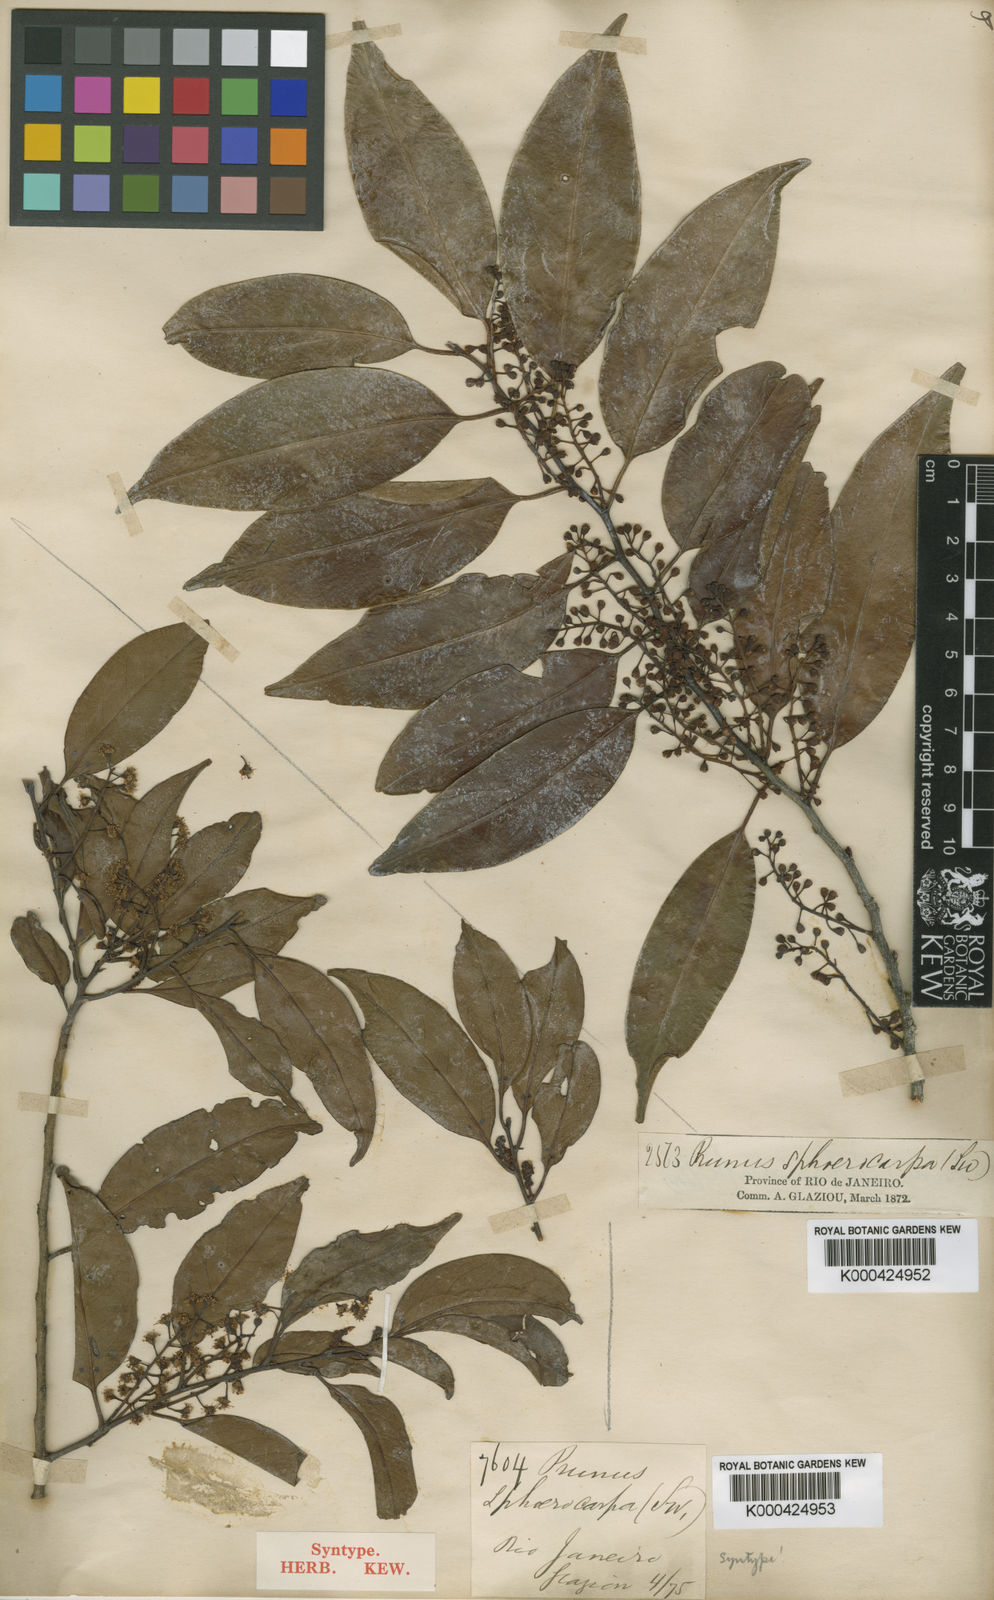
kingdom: Plantae
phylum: Tracheophyta
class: Magnoliopsida
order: Rosales
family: Rosaceae
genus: Prunus
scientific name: Prunus myrtifolia
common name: West indies cherry
